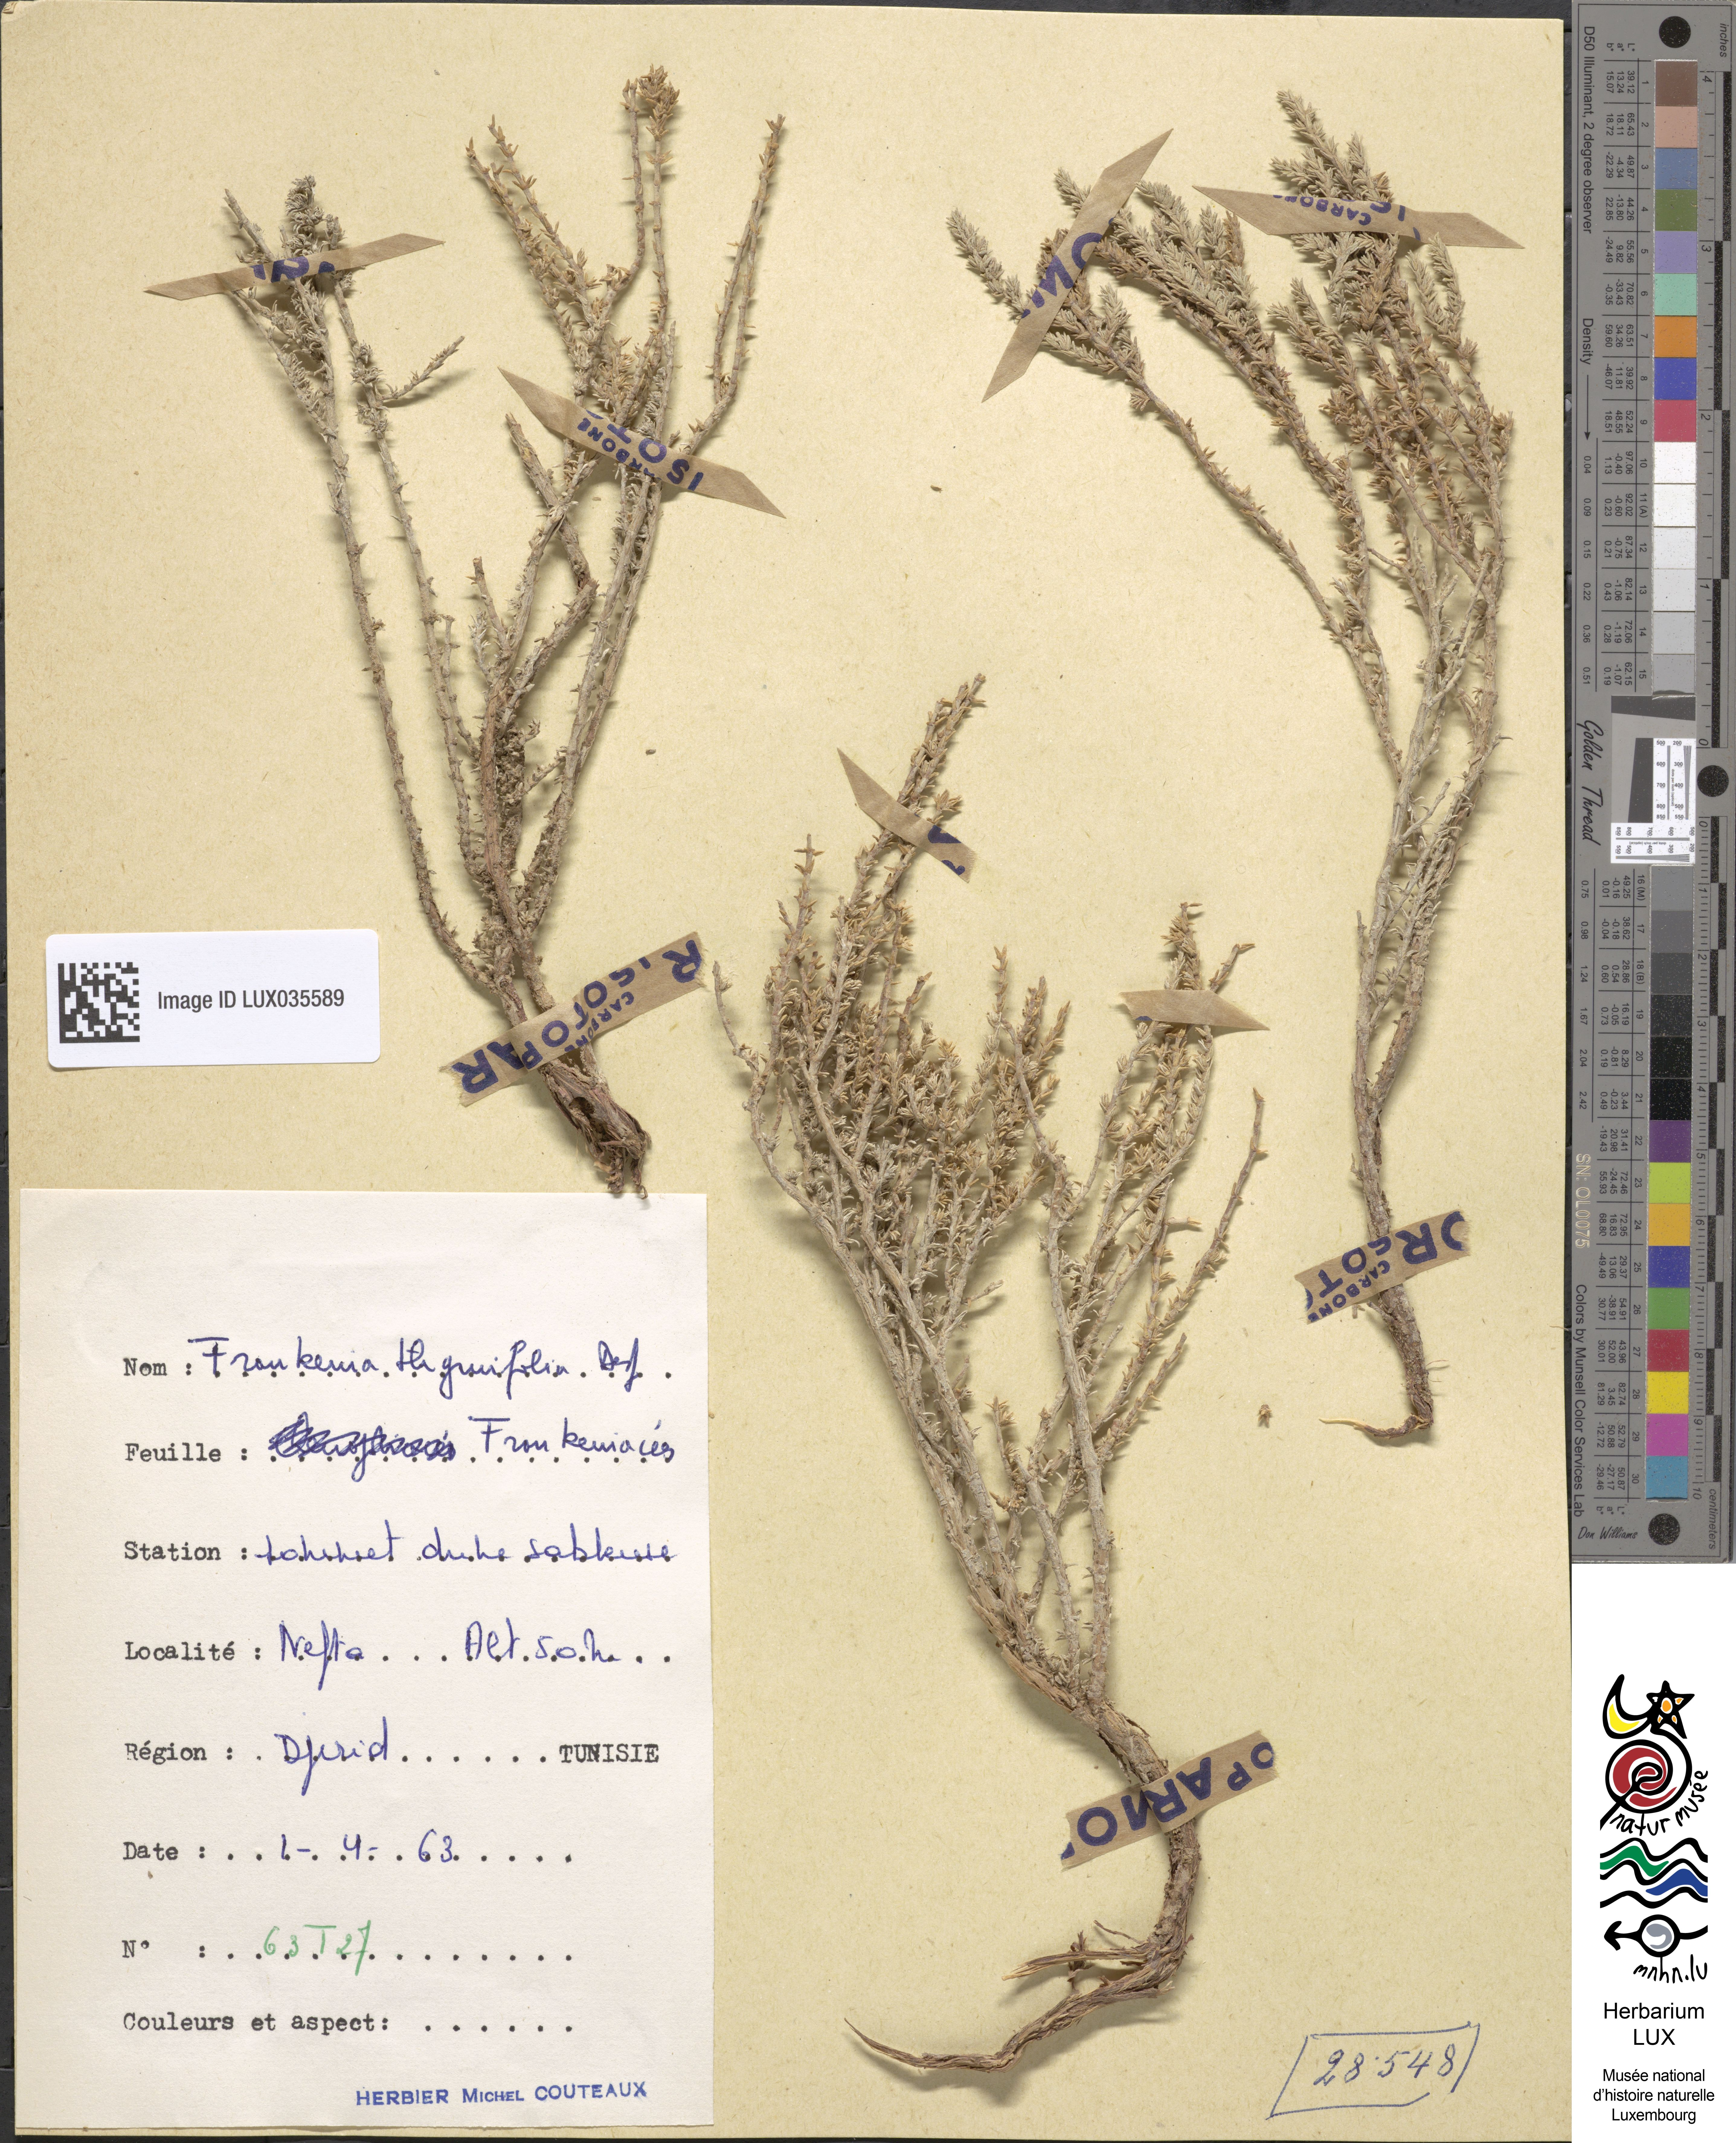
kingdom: Plantae
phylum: Tracheophyta
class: Magnoliopsida
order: Caryophyllales
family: Frankeniaceae
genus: Frankenia
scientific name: Frankenia thymifolia
